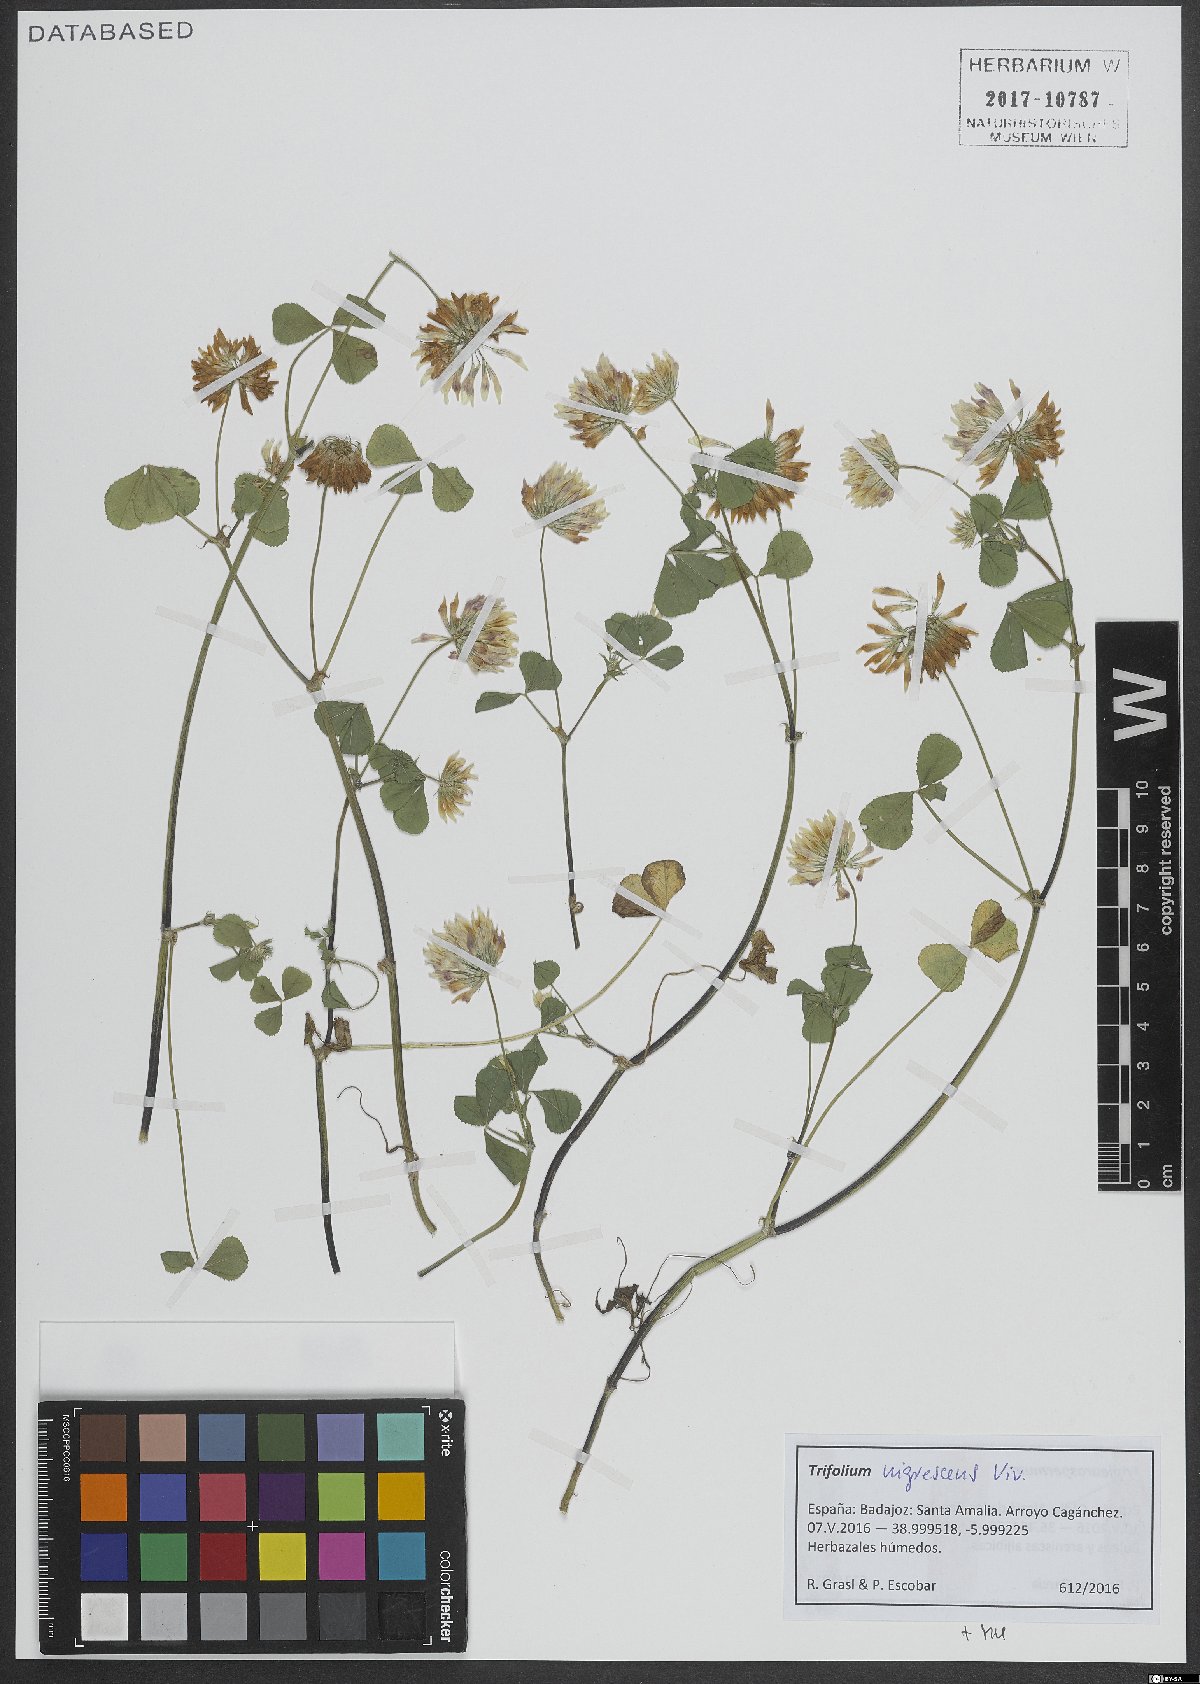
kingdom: Plantae
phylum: Tracheophyta
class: Magnoliopsida
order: Fabales
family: Fabaceae
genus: Trifolium
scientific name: Trifolium nigrescens
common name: Small white clover
